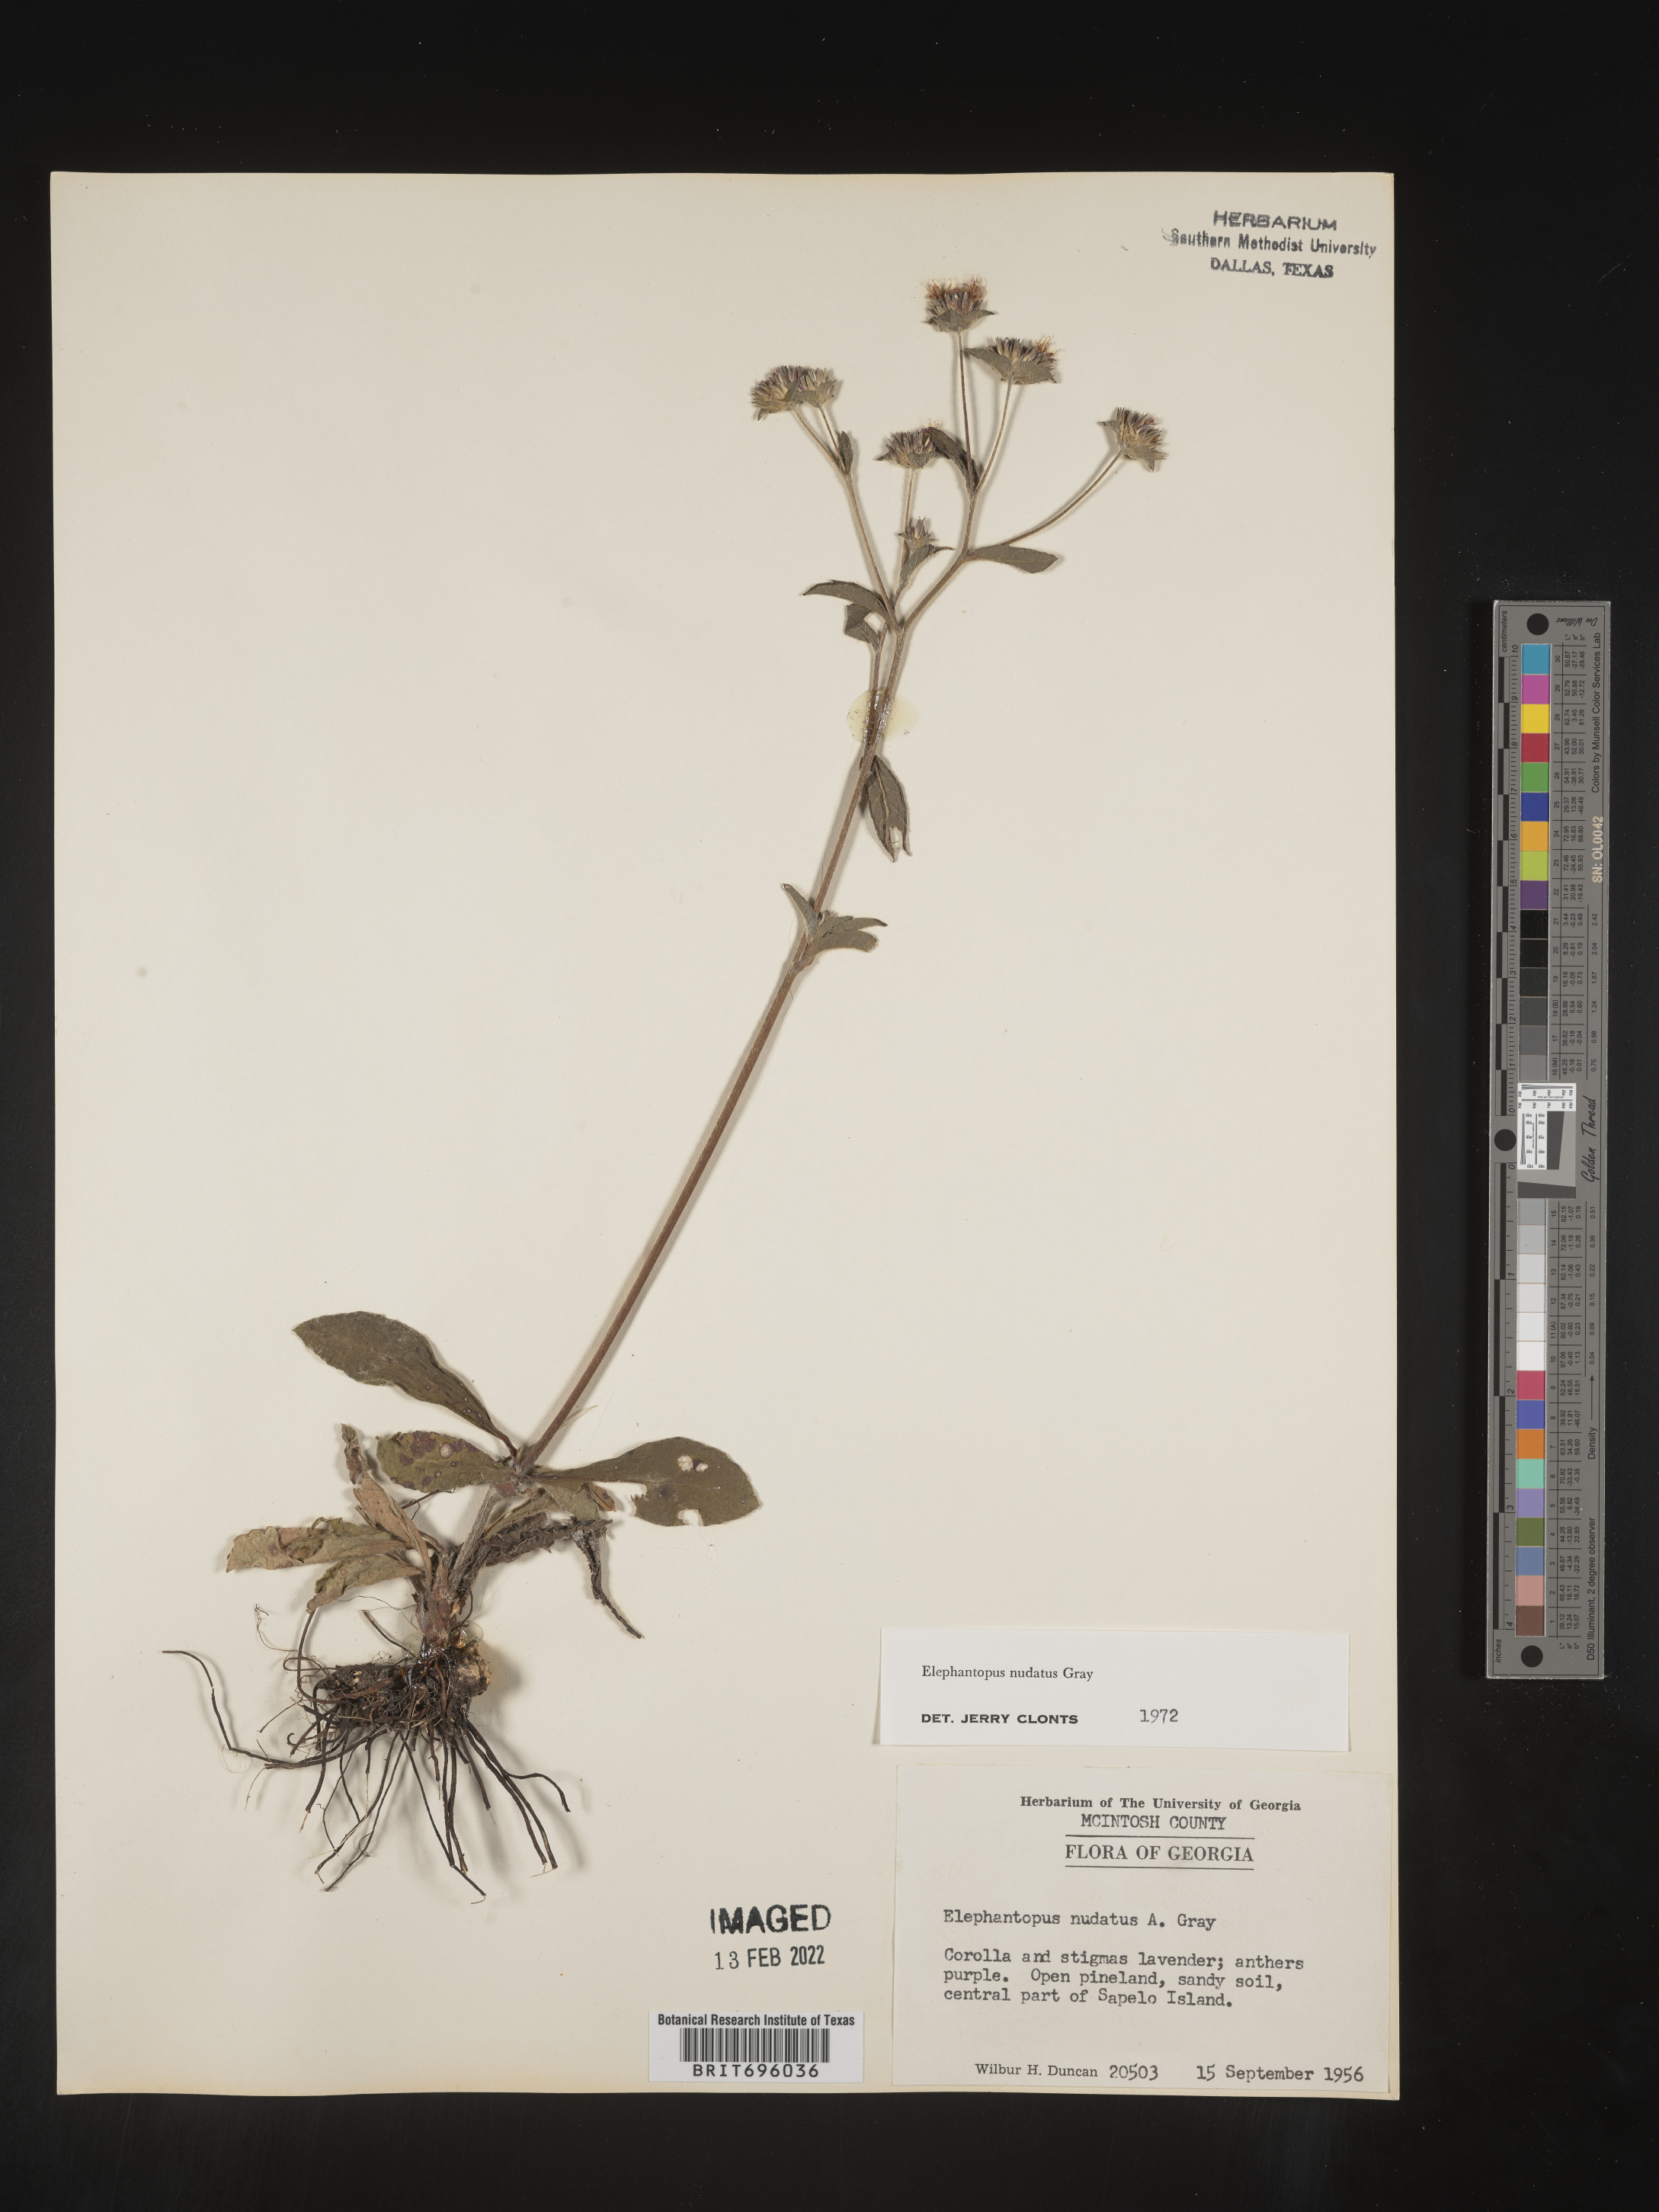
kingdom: Plantae
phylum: Tracheophyta
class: Magnoliopsida
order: Asterales
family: Asteraceae
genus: Elephantopus
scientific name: Elephantopus nudatus
